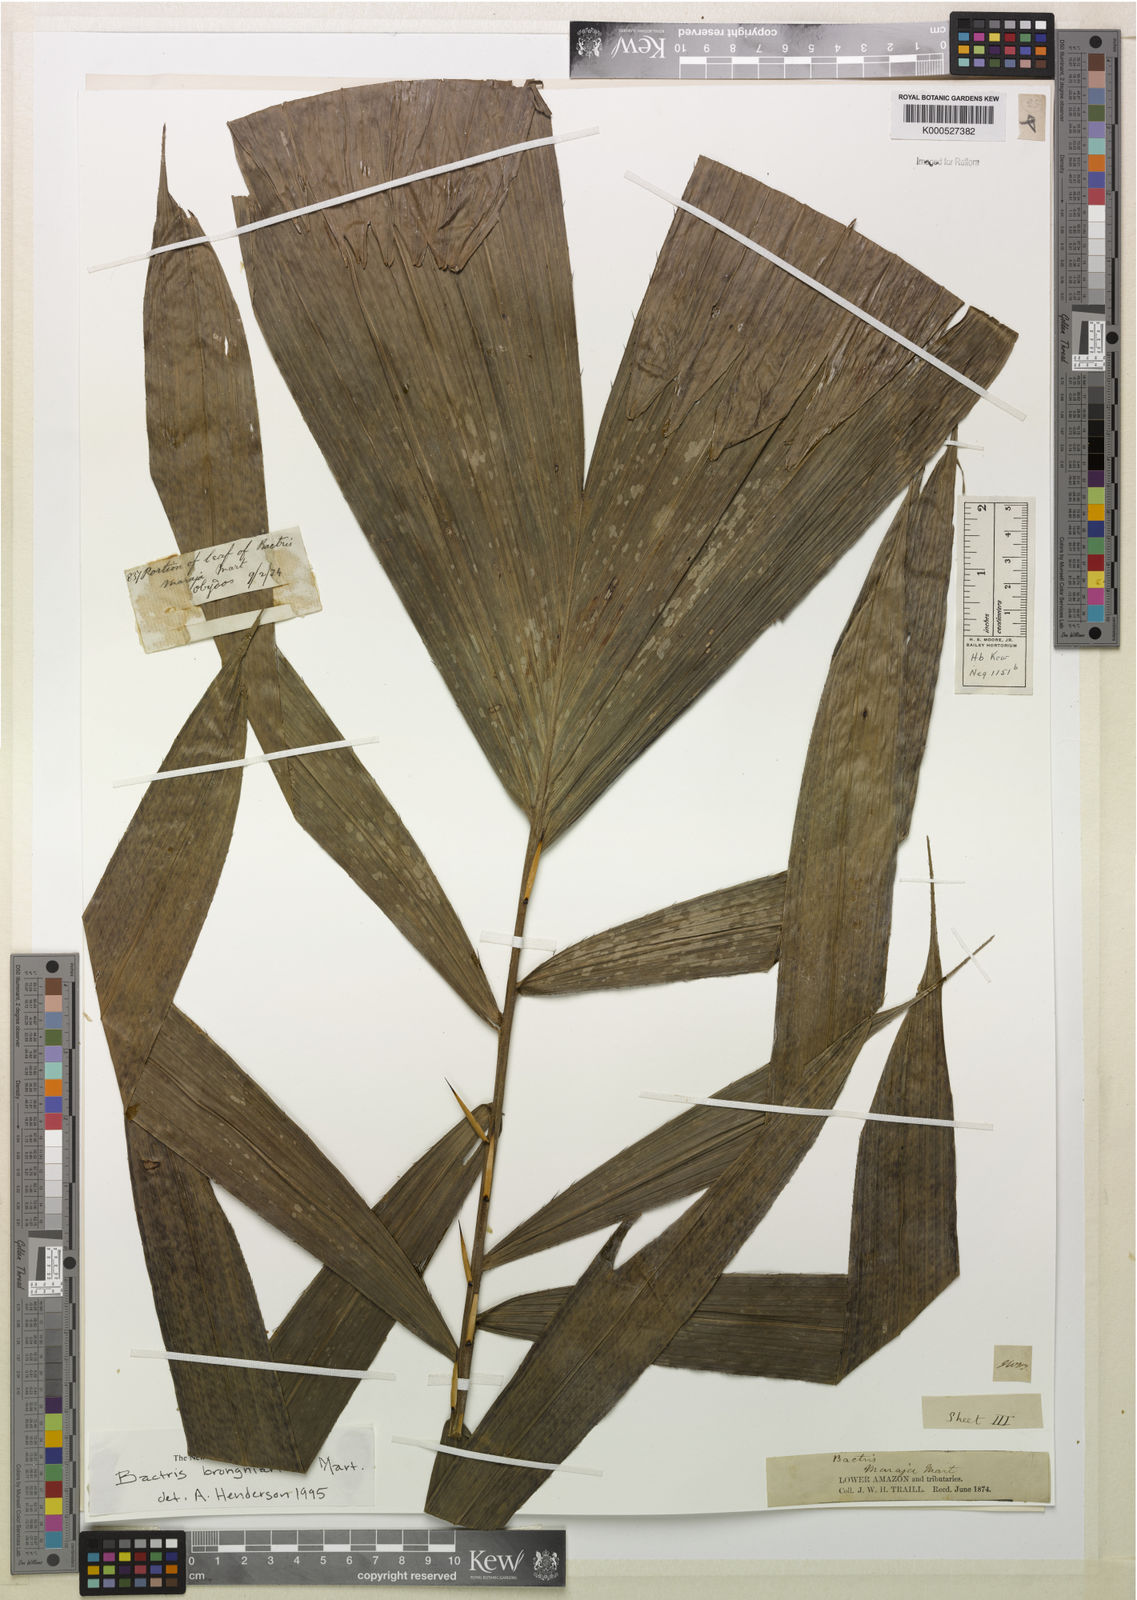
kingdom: Plantae
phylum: Tracheophyta
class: Liliopsida
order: Arecales
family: Arecaceae
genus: Bactris
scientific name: Bactris brongniartii
